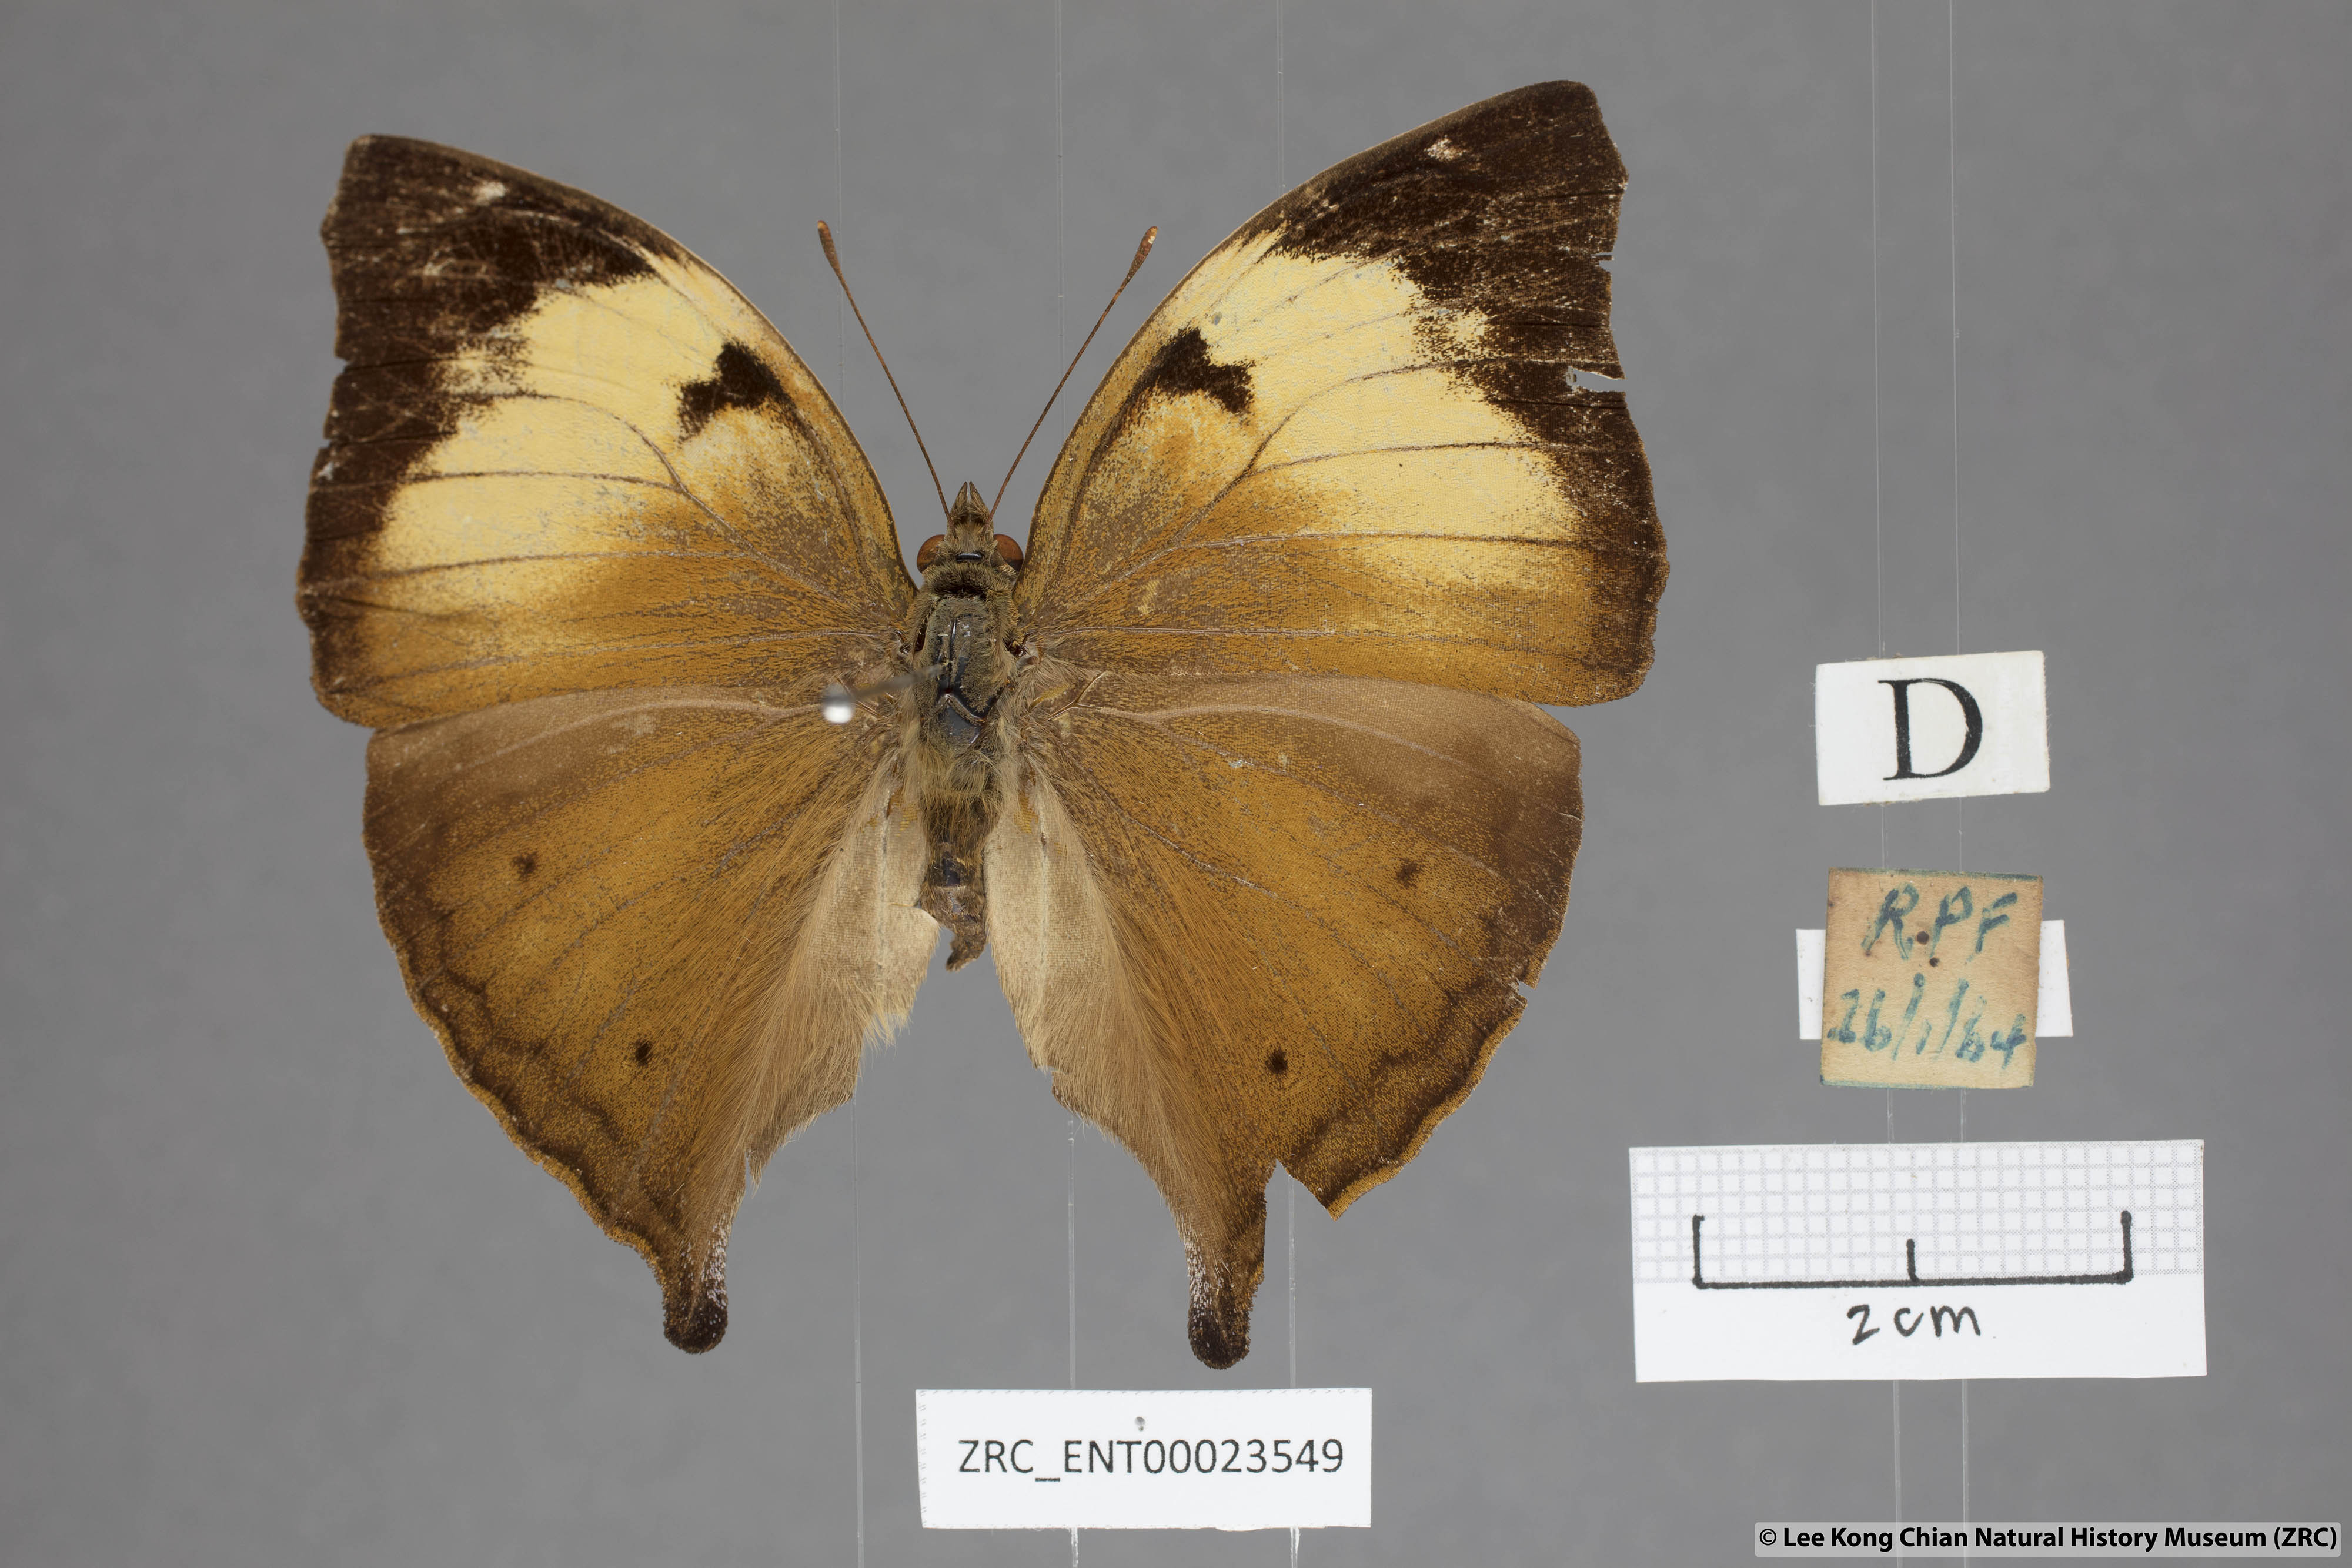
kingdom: Animalia
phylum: Arthropoda
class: Insecta
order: Lepidoptera
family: Nymphalidae
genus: Doleschallia
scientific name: Doleschallia bisaltide
